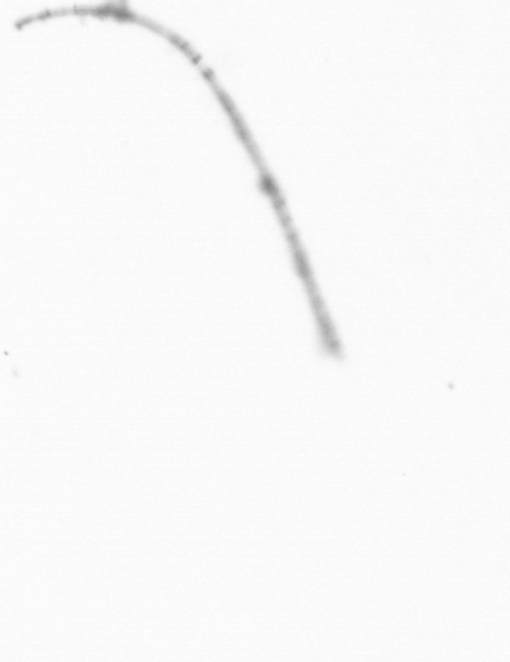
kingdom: Chromista
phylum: Ochrophyta
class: Bacillariophyceae
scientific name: Bacillariophyceae
